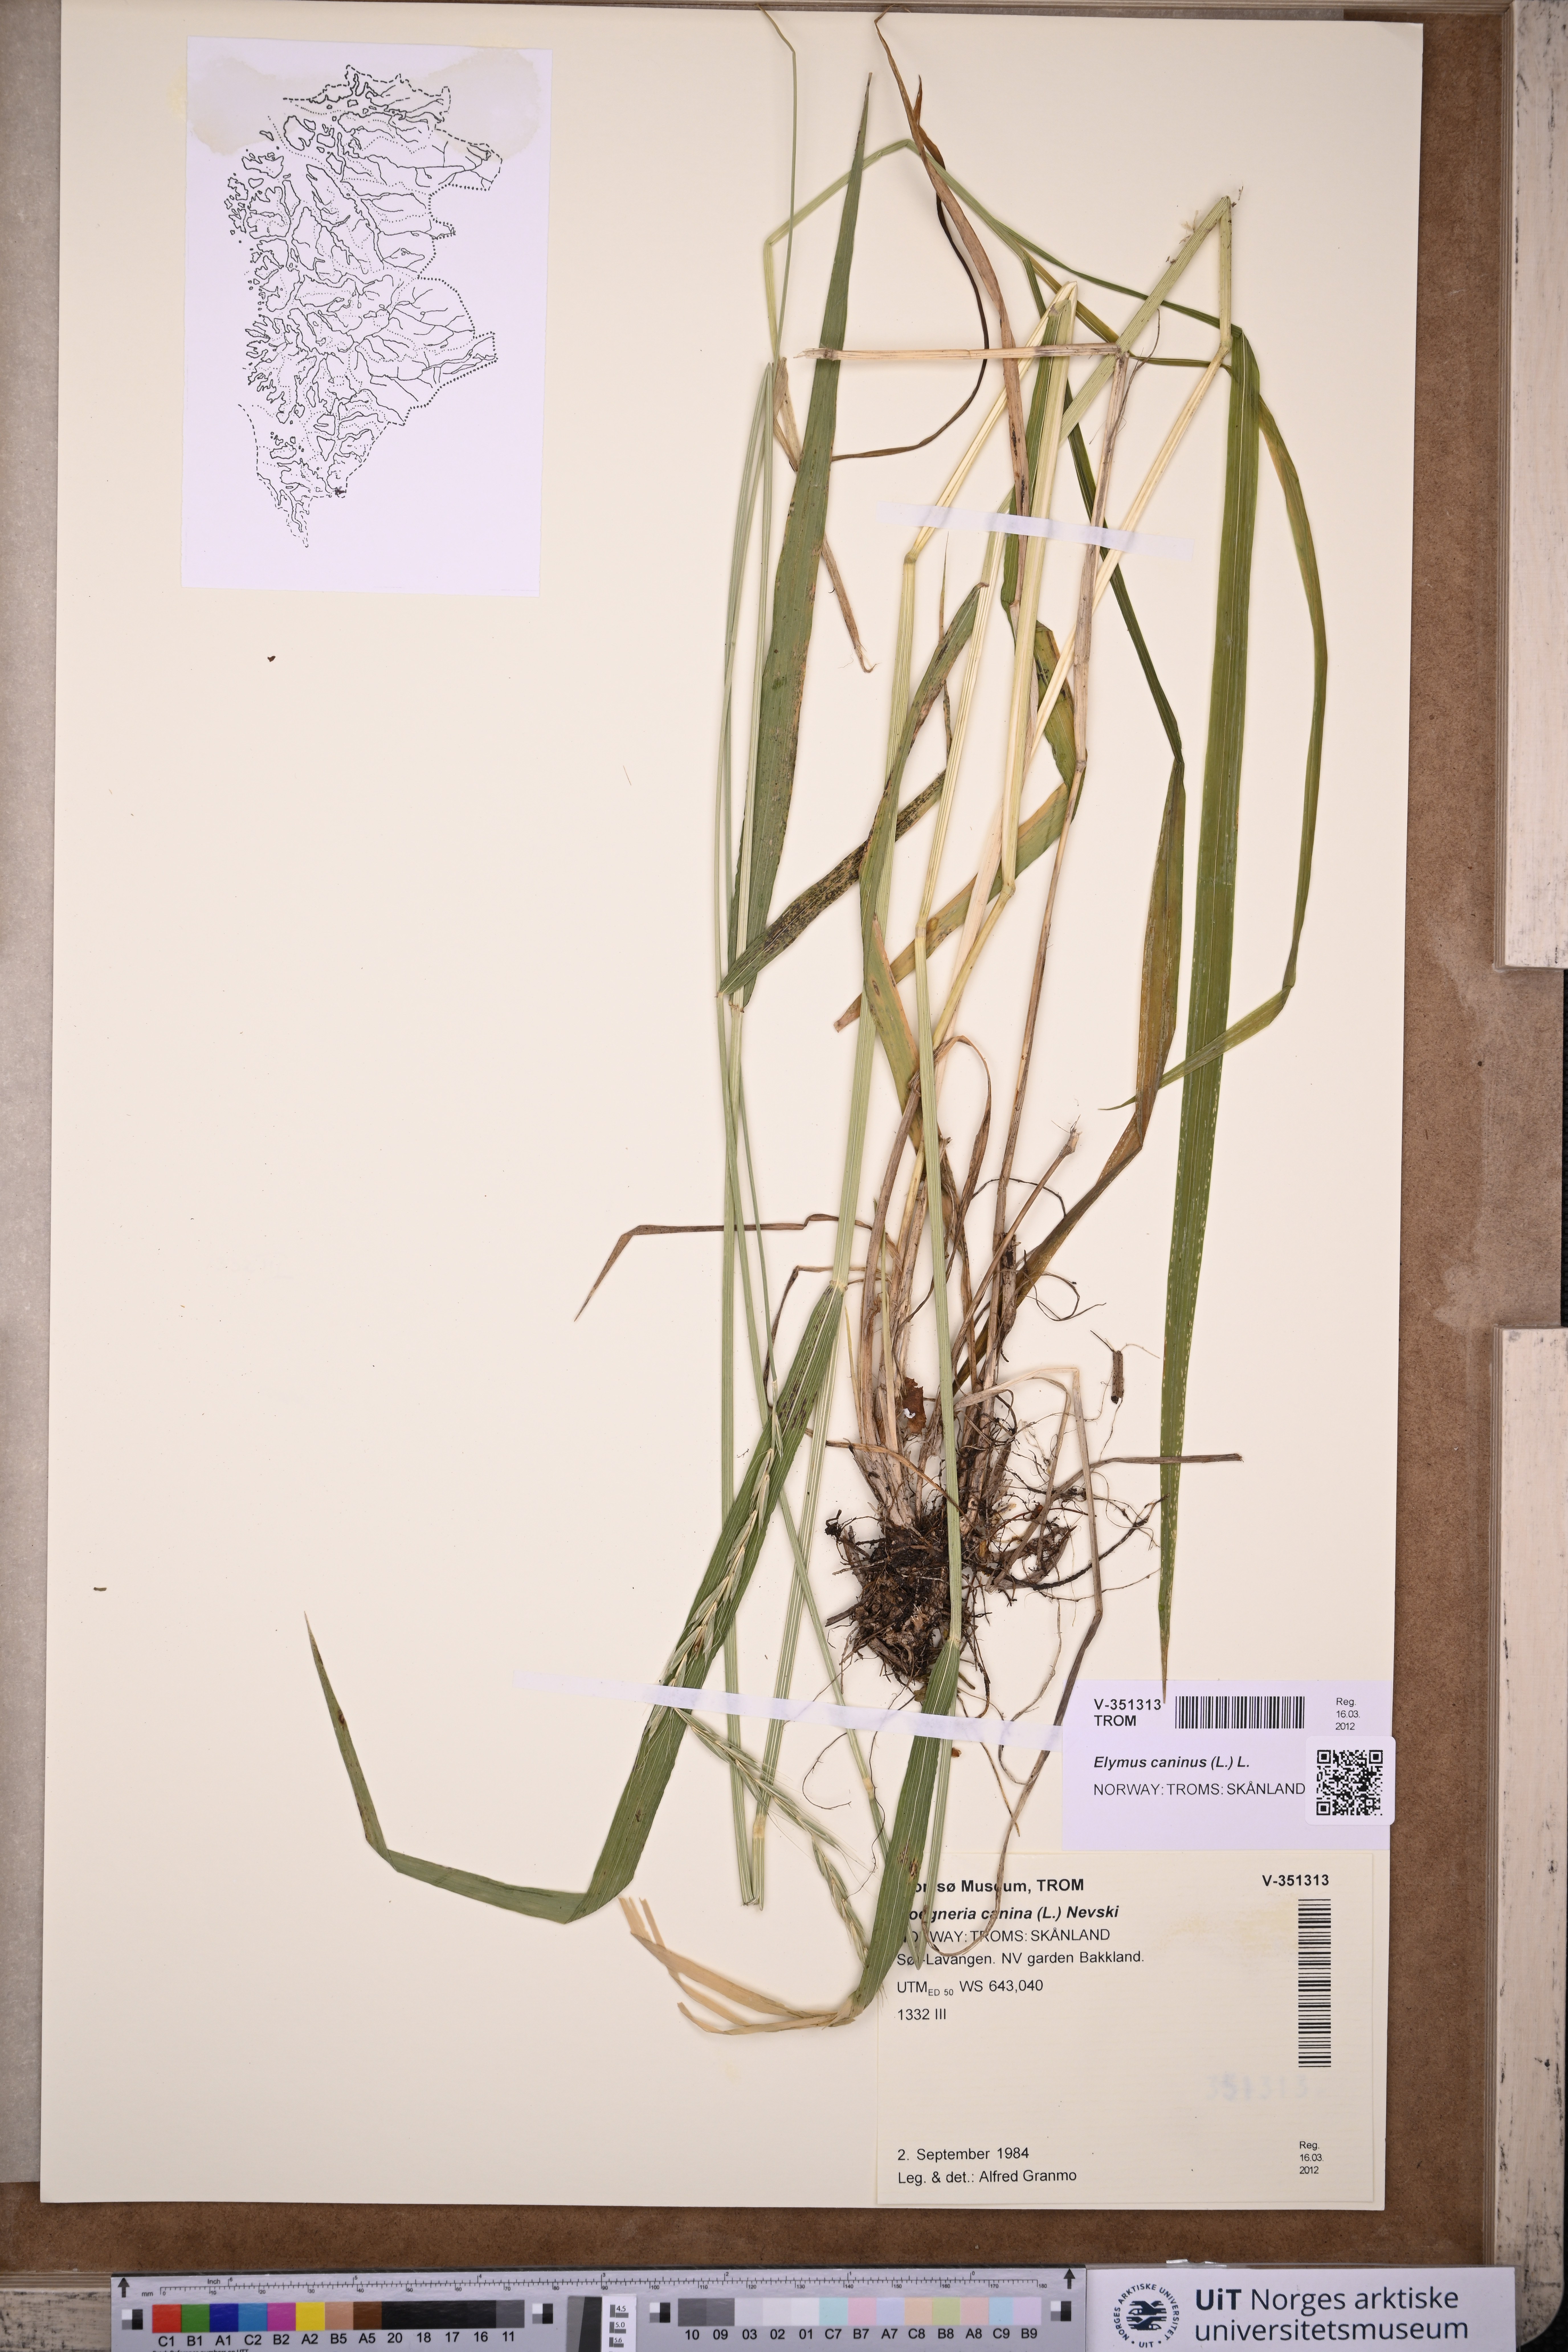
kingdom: Plantae
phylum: Tracheophyta
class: Liliopsida
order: Poales
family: Poaceae
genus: Elymus
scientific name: Elymus caninus
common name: Bearded couch
